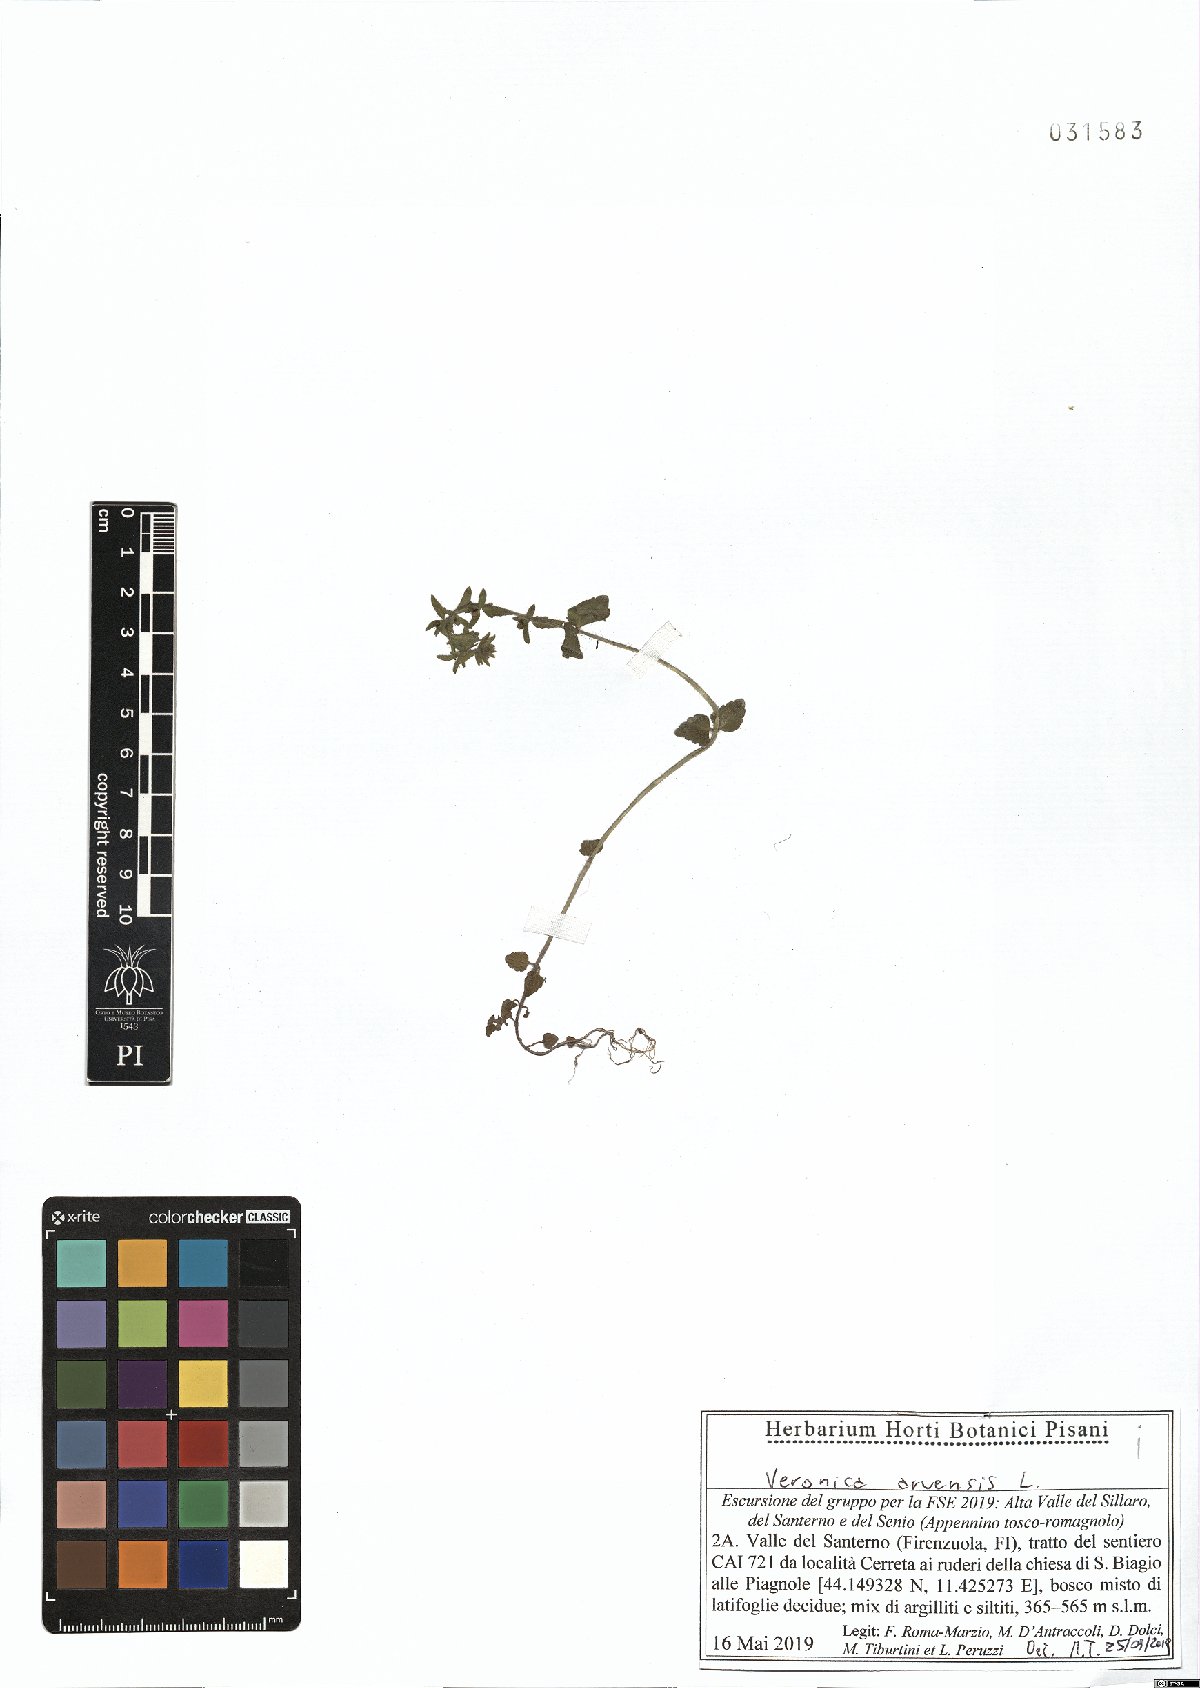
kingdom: Plantae
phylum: Tracheophyta
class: Magnoliopsida
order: Lamiales
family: Plantaginaceae
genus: Veronica
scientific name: Veronica arvensis
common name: Corn speedwell
